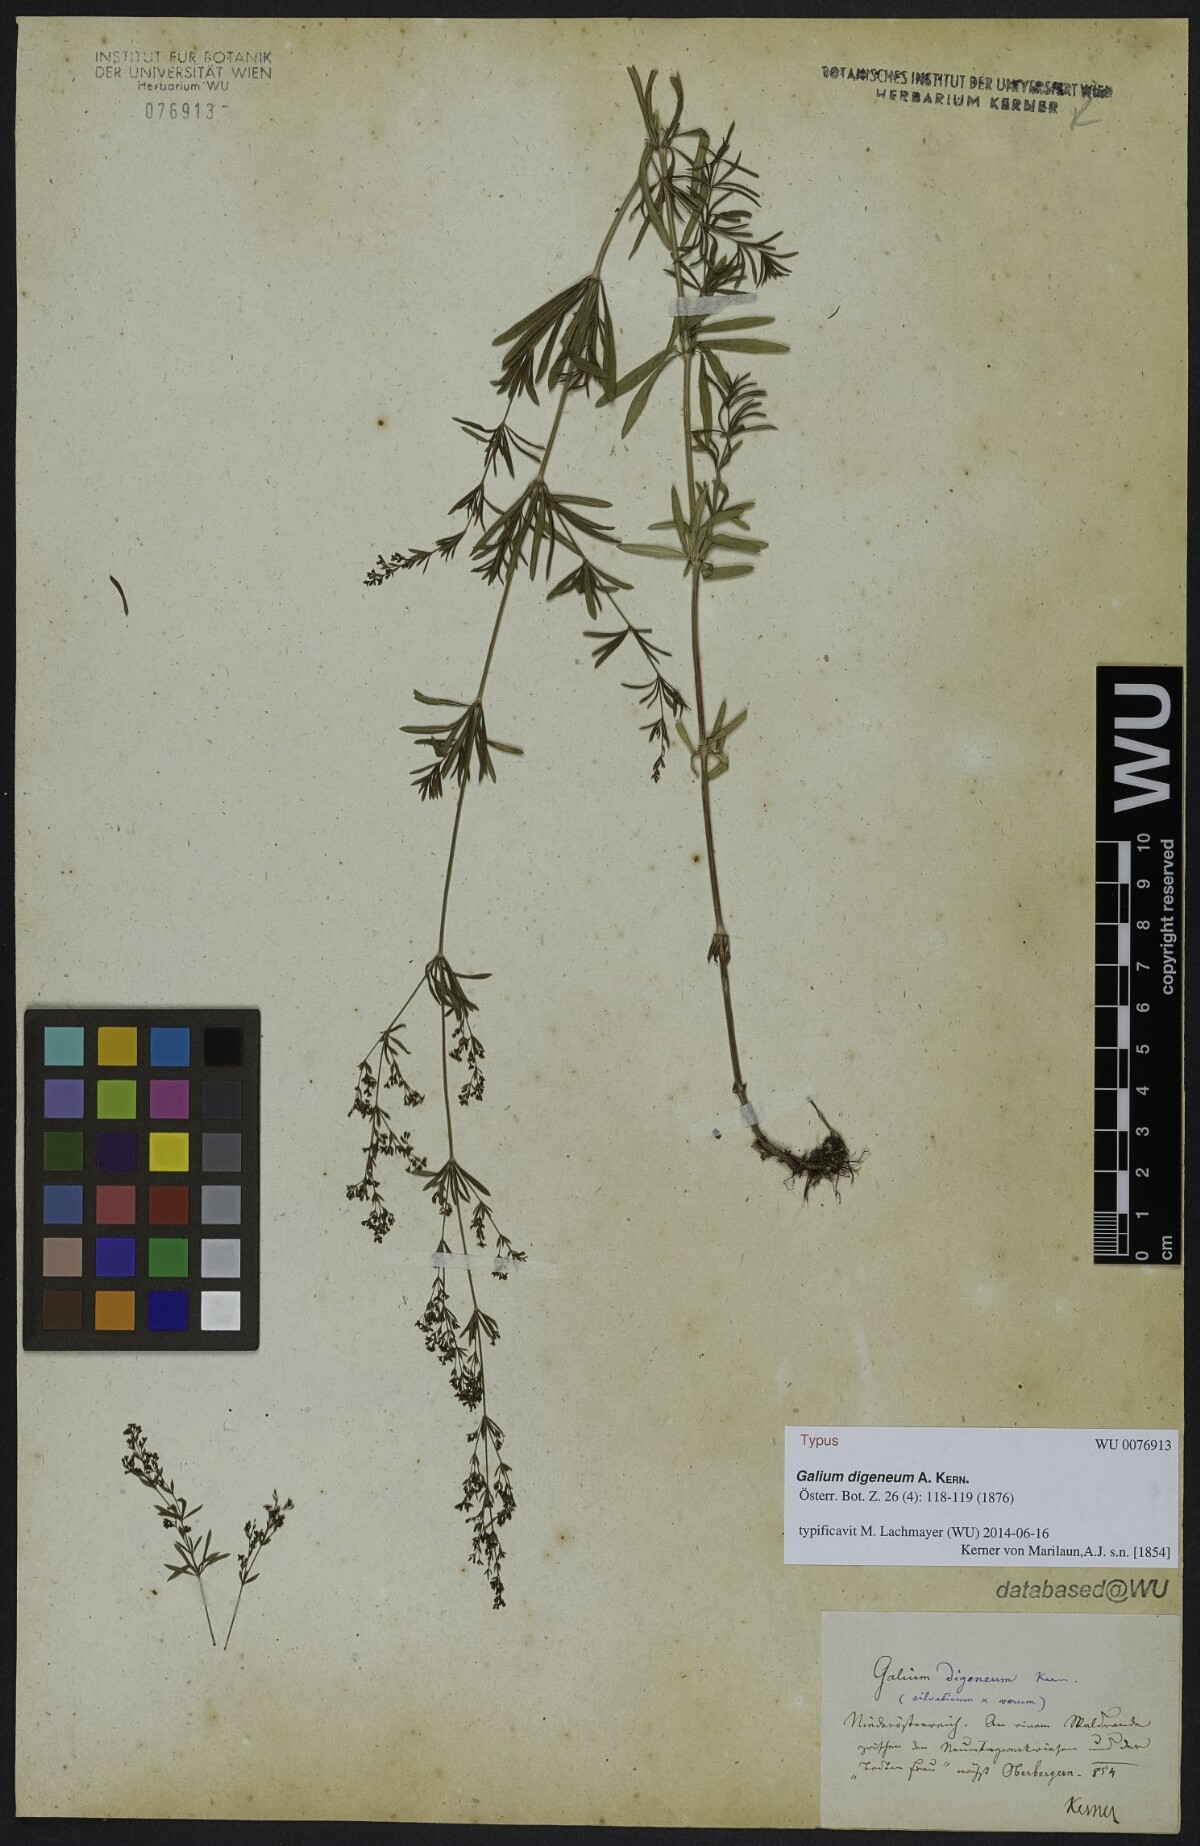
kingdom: Plantae
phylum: Tracheophyta
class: Magnoliopsida
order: Gentianales
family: Rubiaceae
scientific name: Rubiaceae
